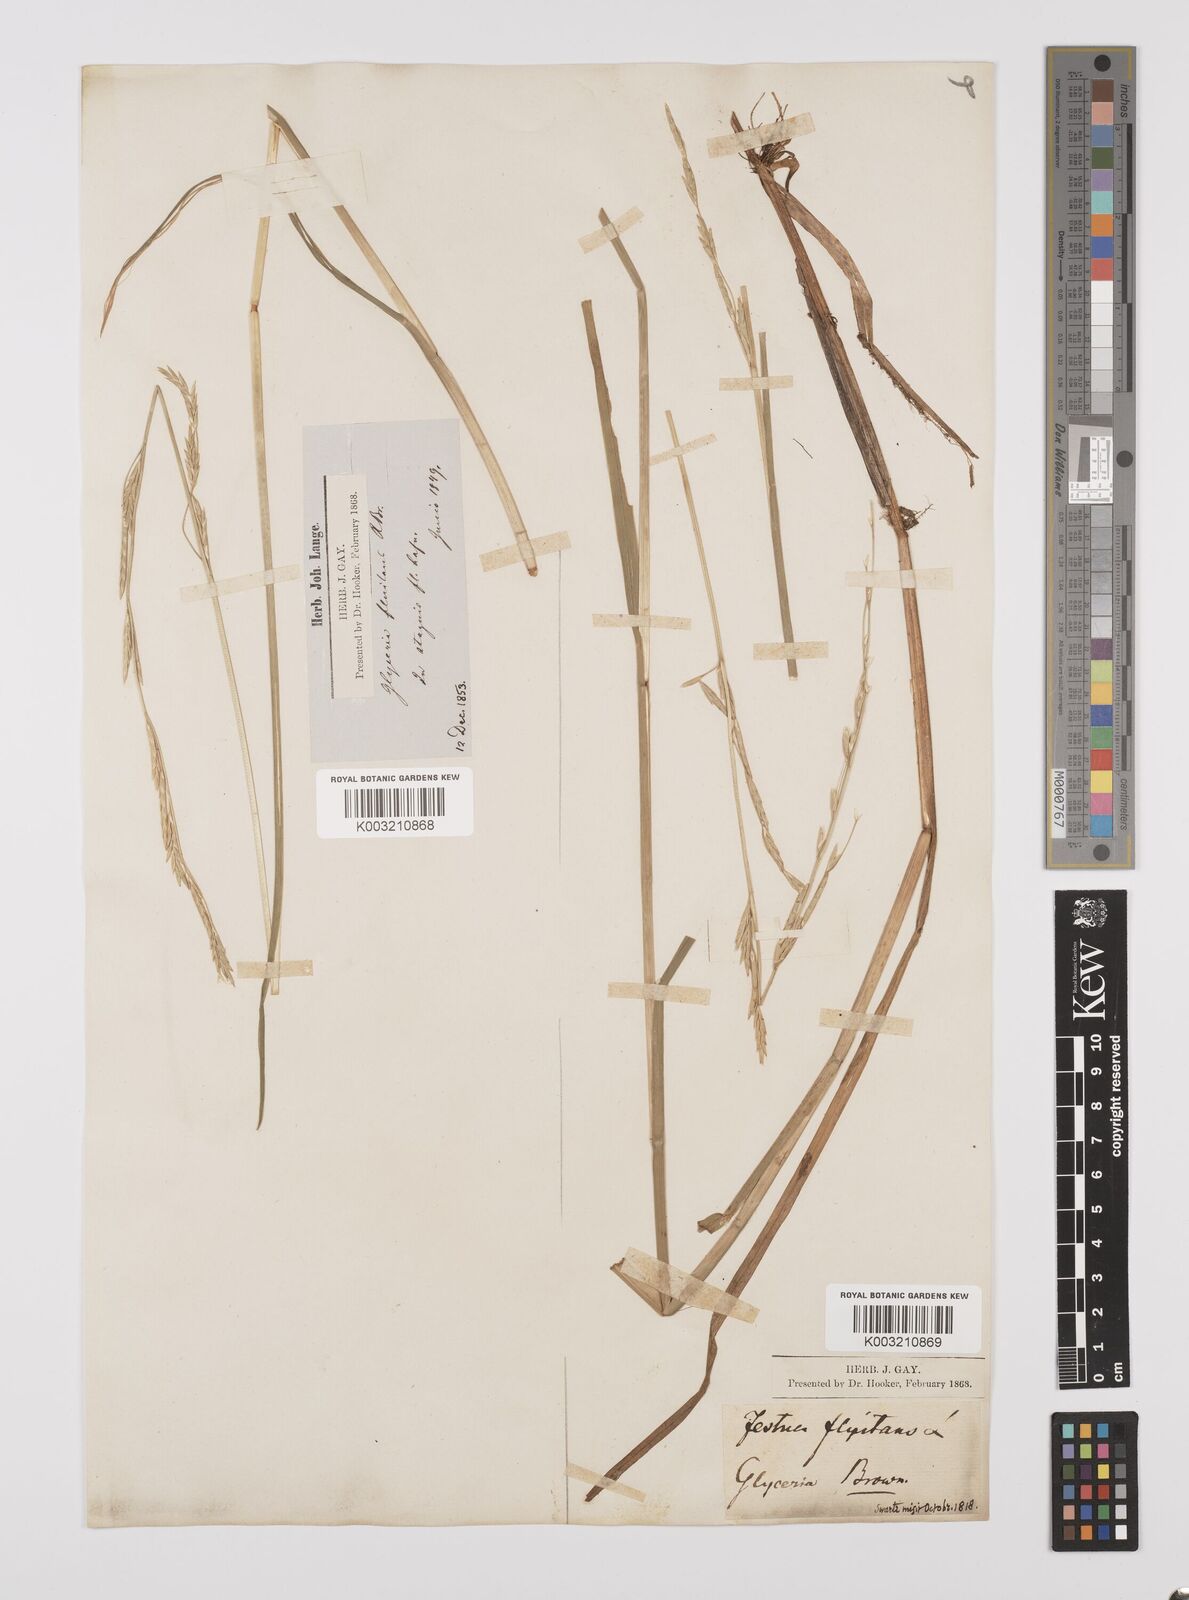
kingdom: Plantae
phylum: Tracheophyta
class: Liliopsida
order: Poales
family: Poaceae
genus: Glyceria
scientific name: Glyceria fluitans
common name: Floating sweet-grass
